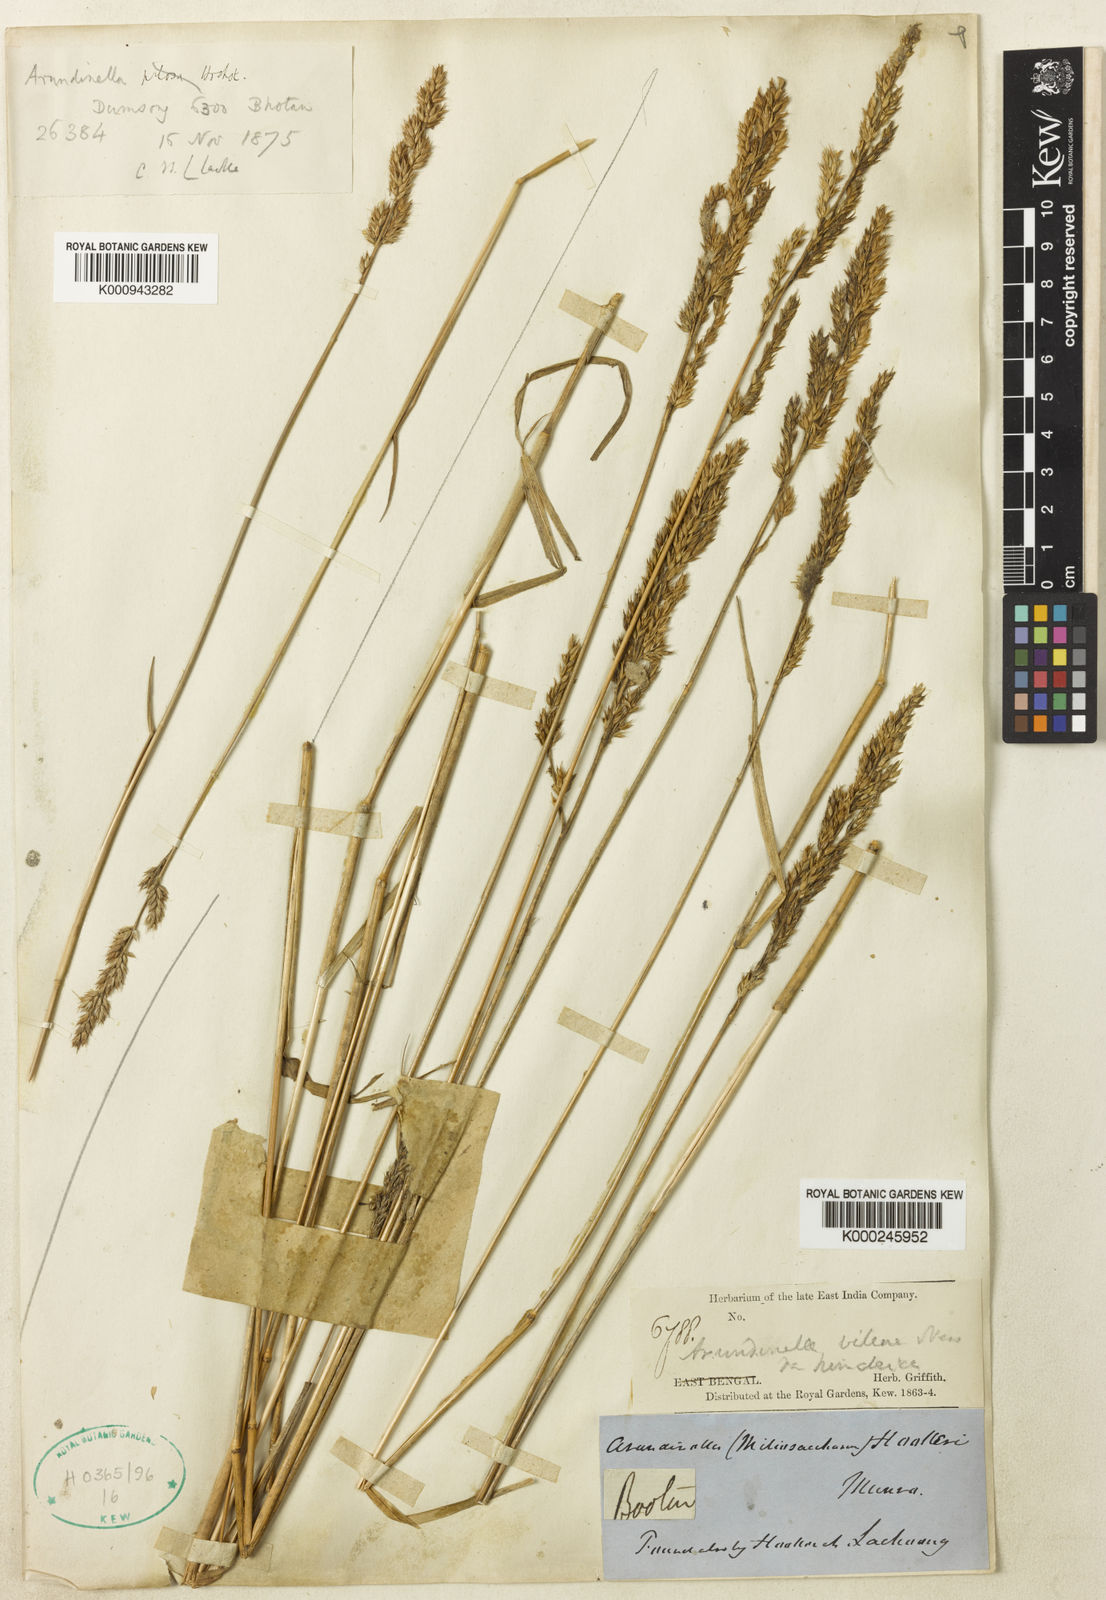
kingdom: Plantae
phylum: Tracheophyta
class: Liliopsida
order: Poales
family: Poaceae
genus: Arundinella
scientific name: Arundinella hookeri
